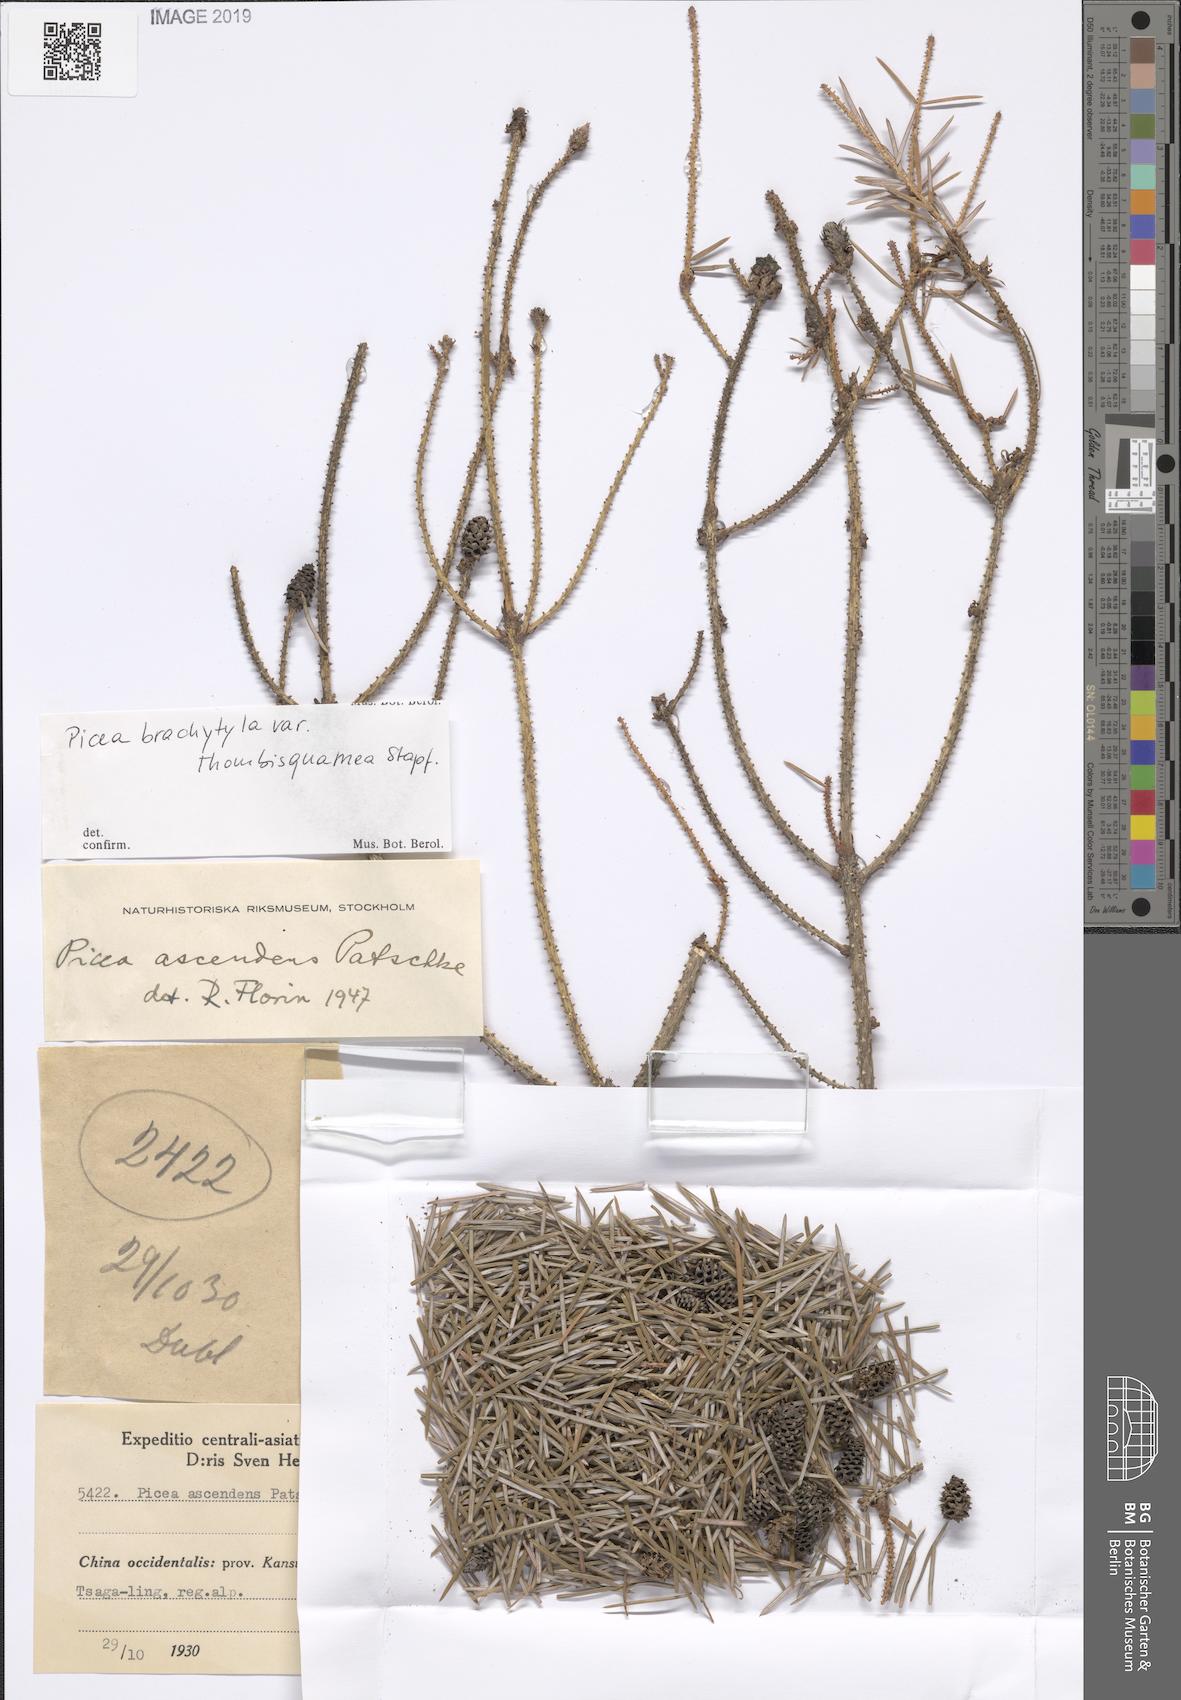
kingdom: Plantae
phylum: Tracheophyta
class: Pinopsida
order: Pinales
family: Pinaceae
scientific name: Pinaceae
